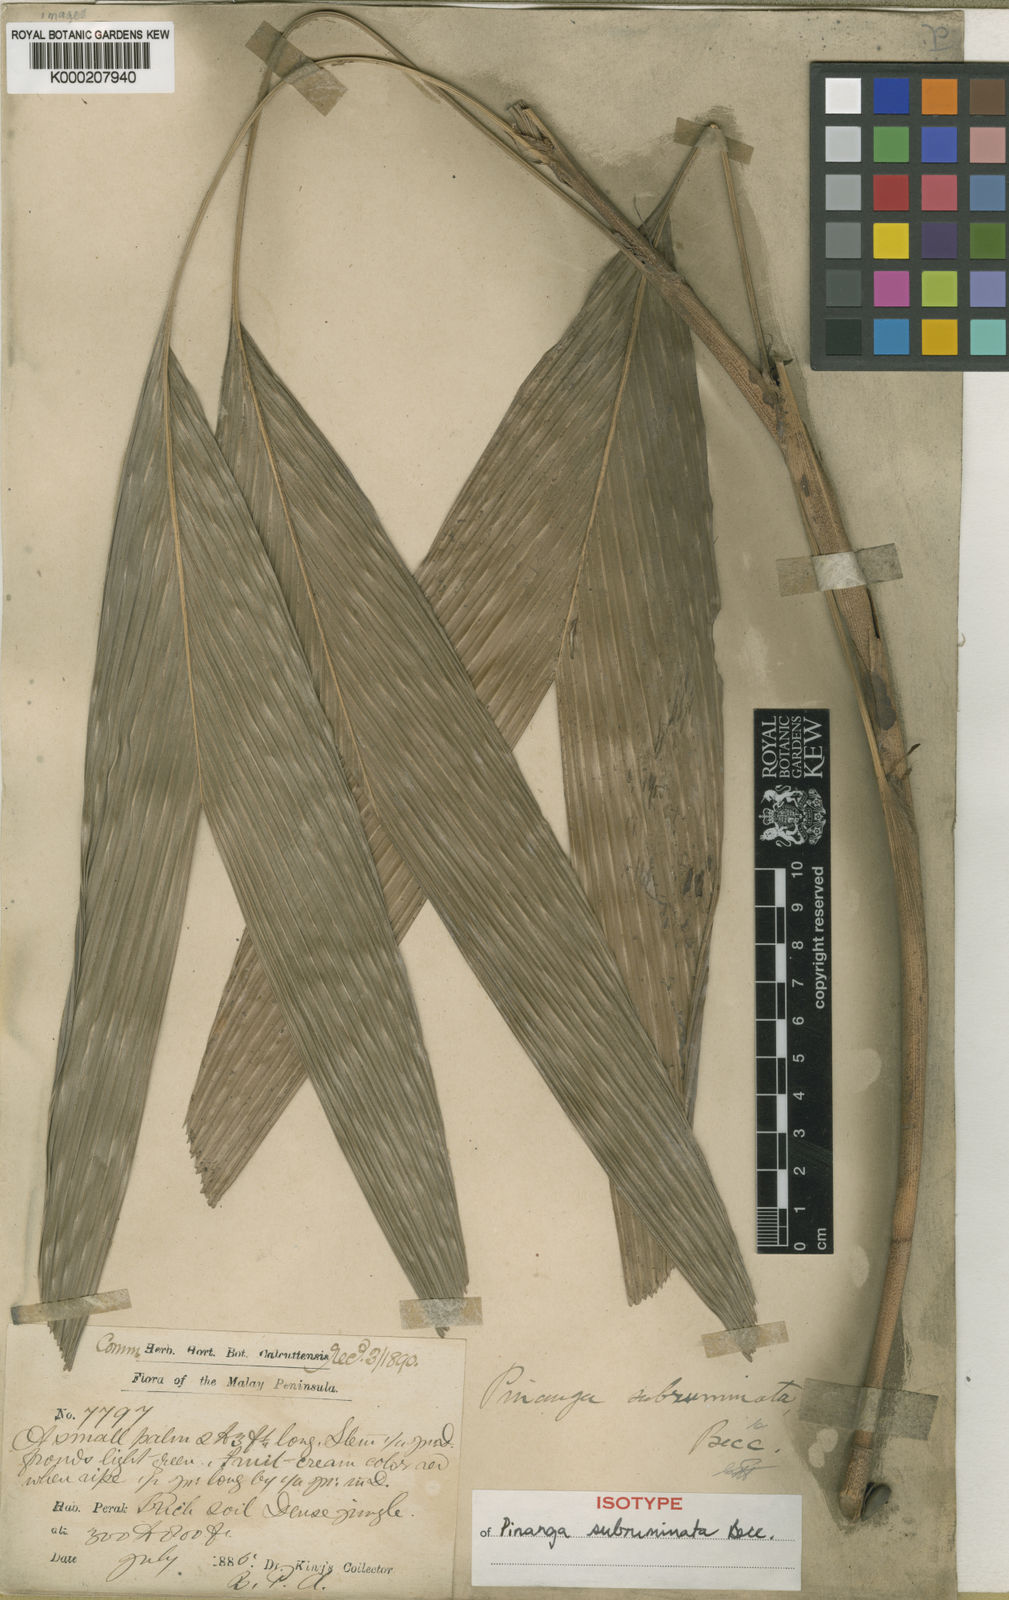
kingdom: Plantae
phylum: Tracheophyta
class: Liliopsida
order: Arecales
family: Arecaceae
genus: Pinanga
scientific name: Pinanga subruminata
